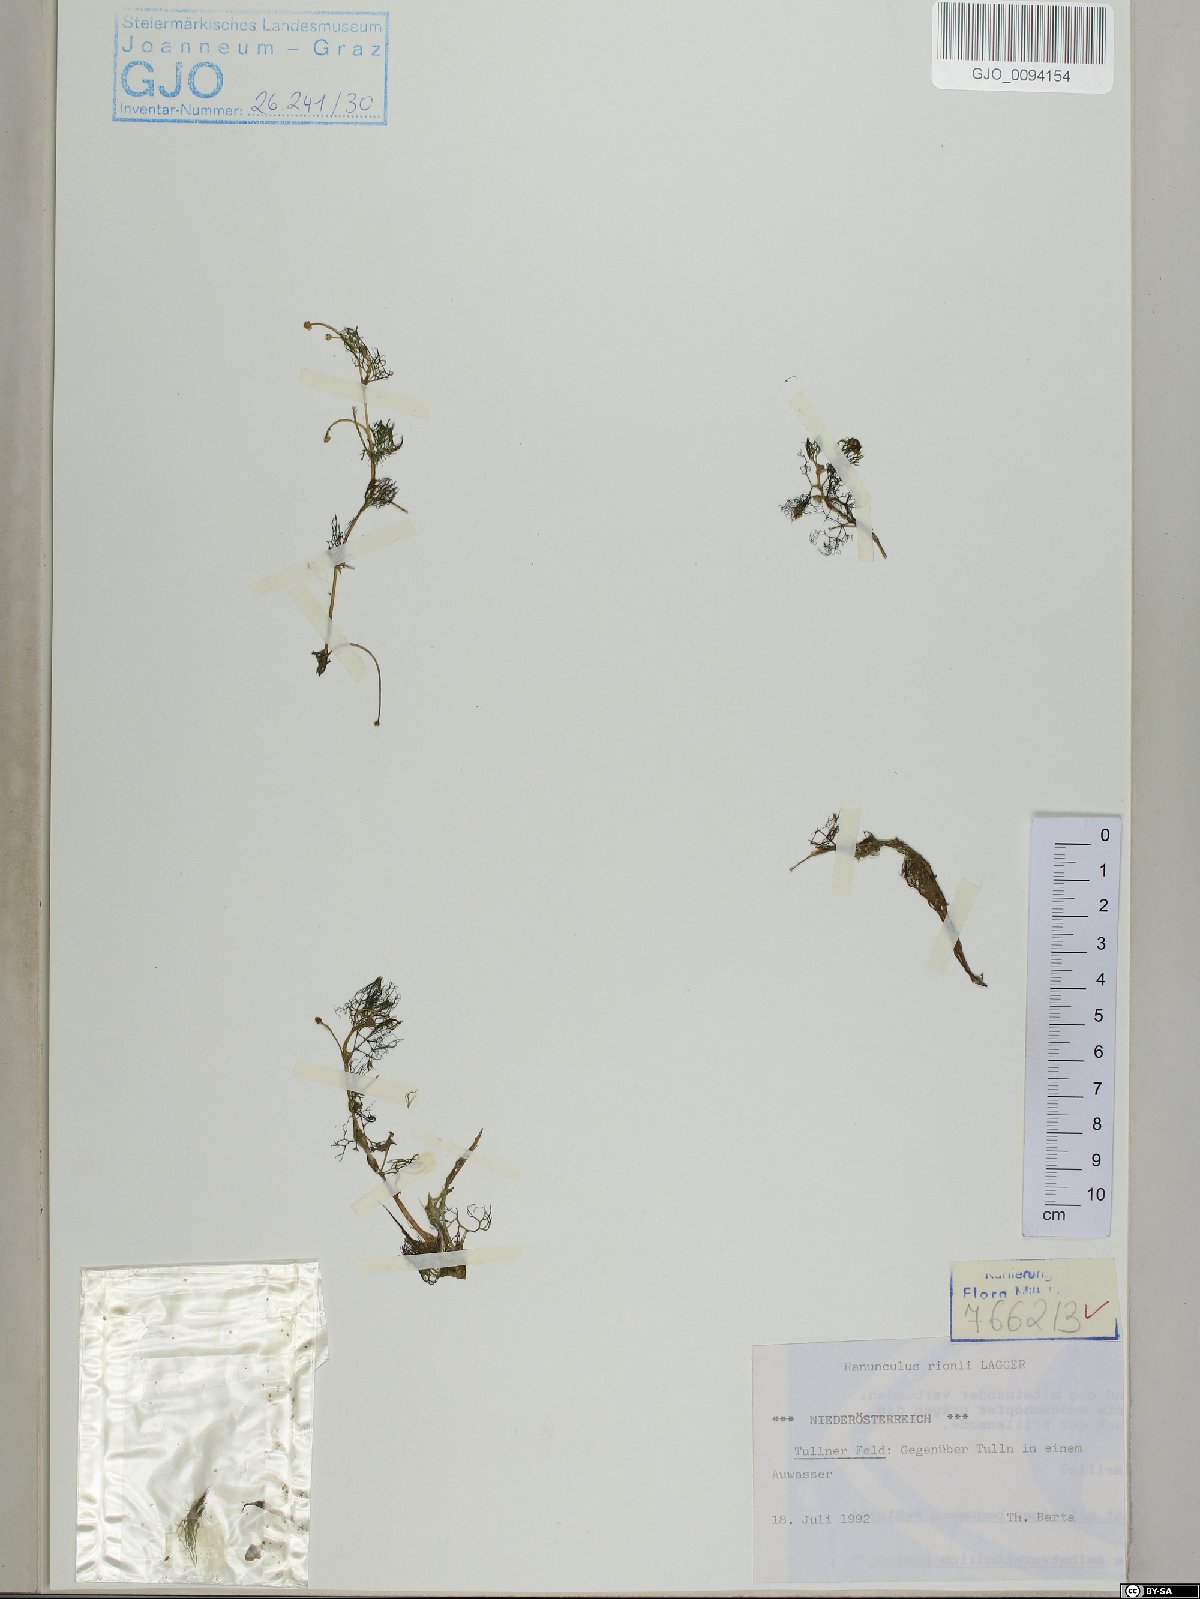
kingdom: Plantae
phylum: Tracheophyta
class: Magnoliopsida
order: Ranunculales
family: Ranunculaceae
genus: Ranunculus
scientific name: Ranunculus rionii
